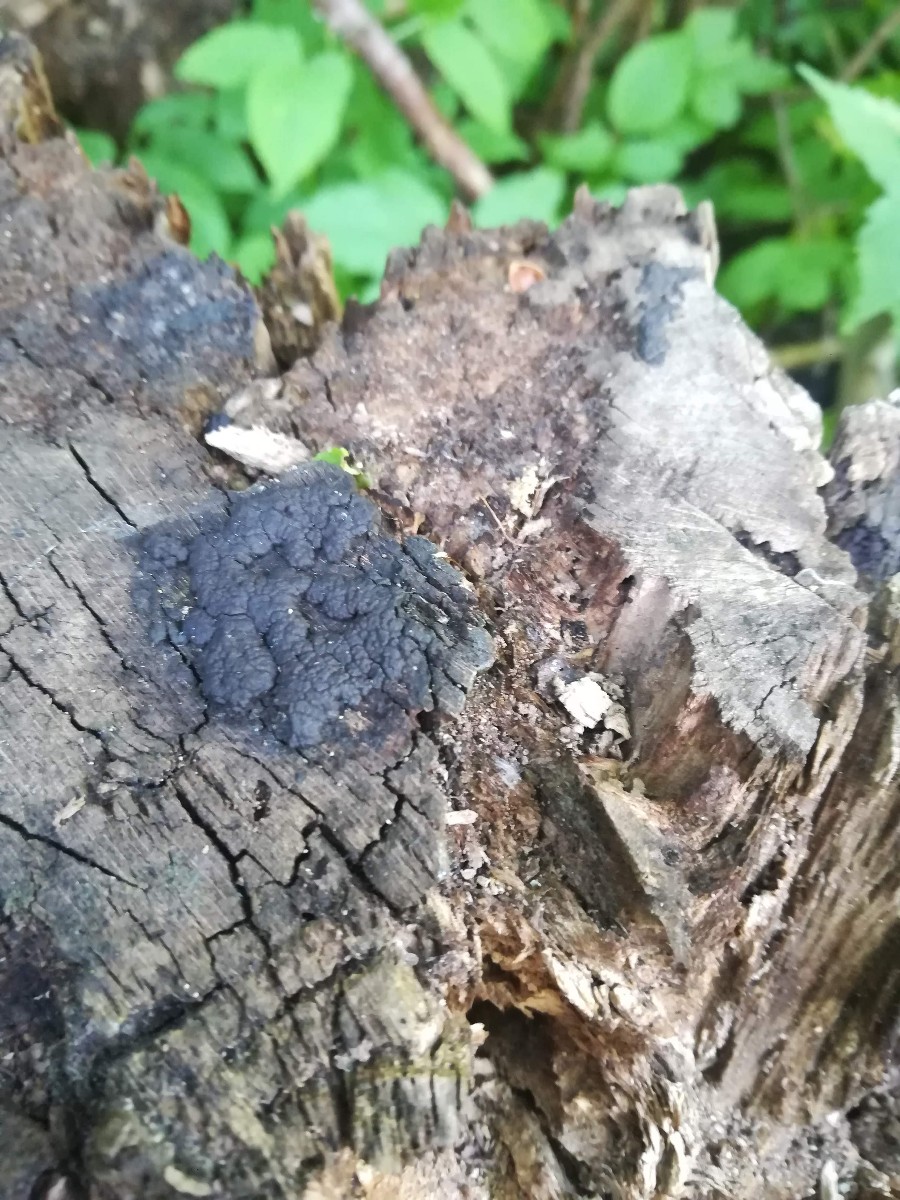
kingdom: Fungi
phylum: Ascomycota
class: Sordariomycetes
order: Xylariales
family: Hypoxylaceae
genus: Jackrogersella
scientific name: Jackrogersella cohaerens
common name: sammenflydende kulbær
